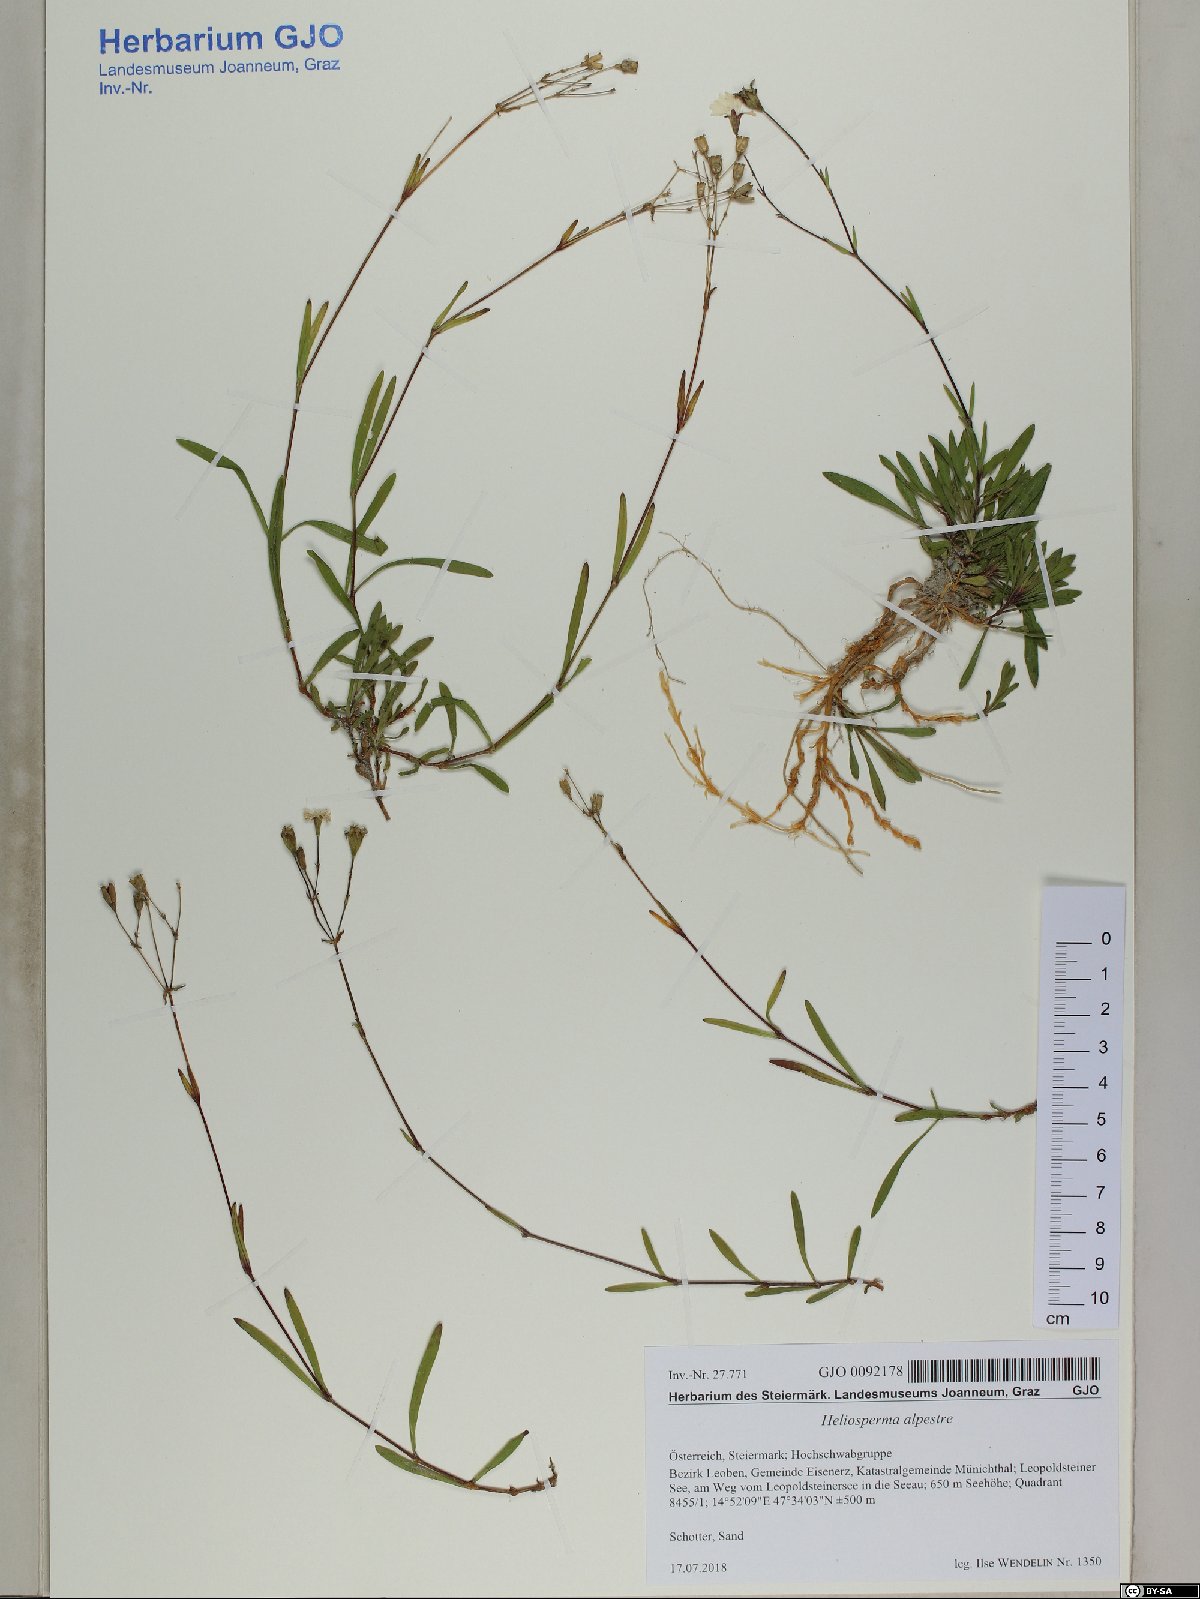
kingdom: Plantae
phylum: Tracheophyta
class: Magnoliopsida
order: Caryophyllales
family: Caryophyllaceae
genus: Heliosperma
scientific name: Heliosperma alpestre
